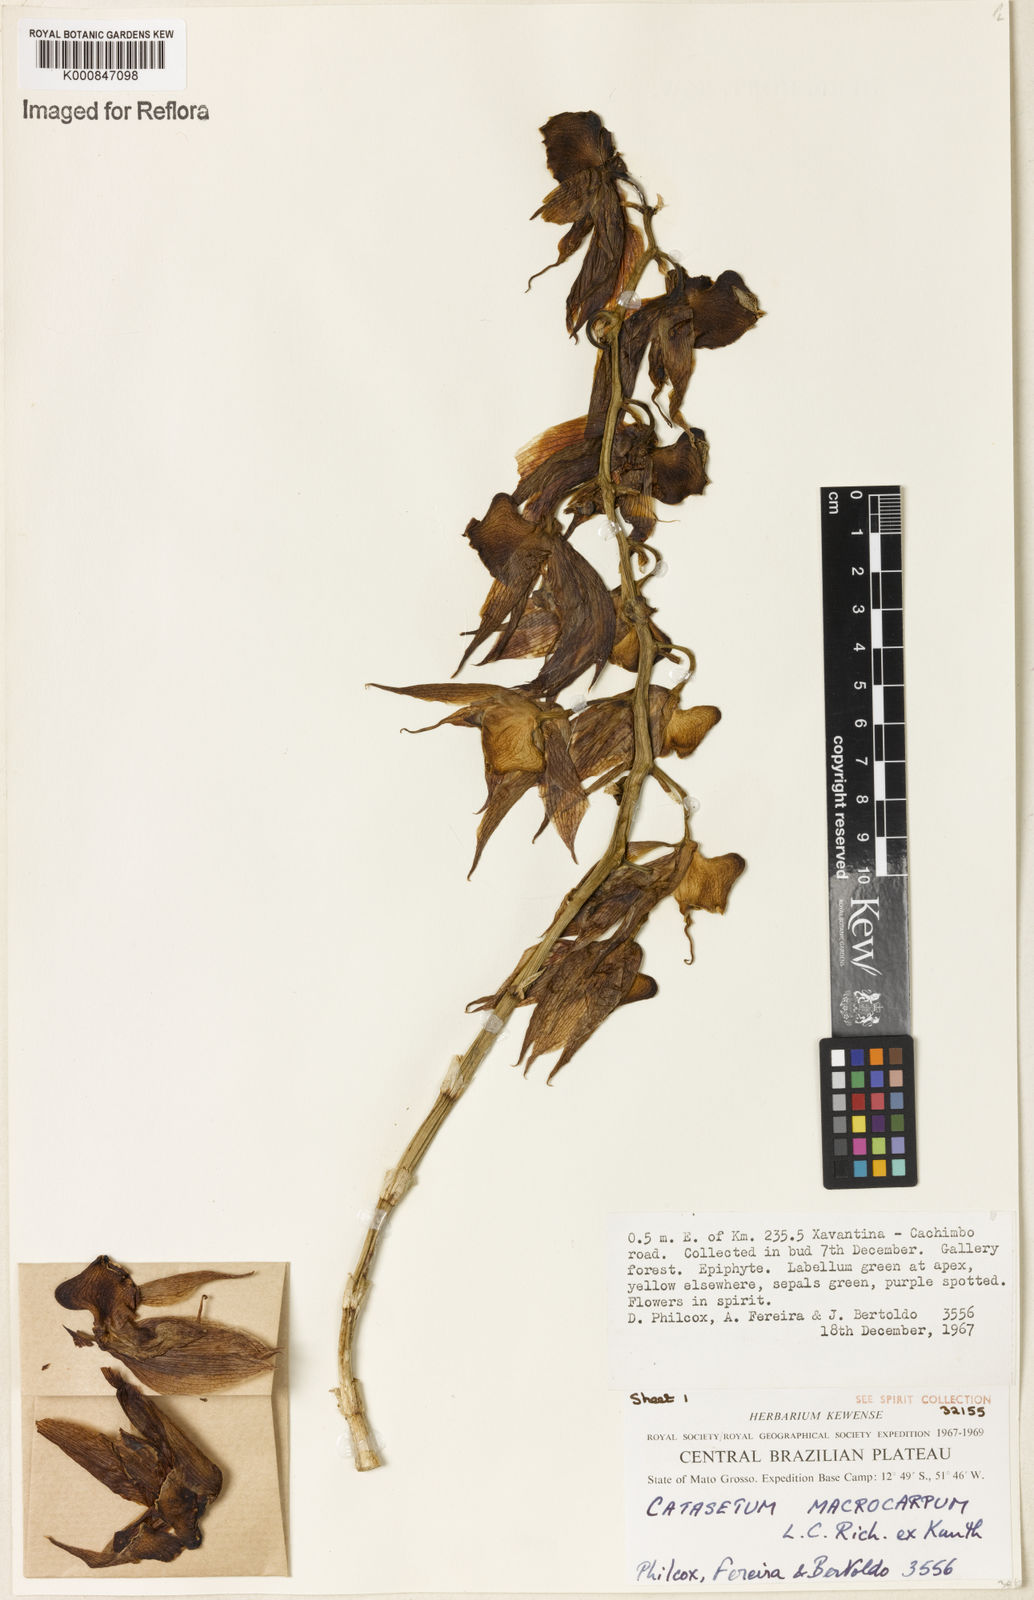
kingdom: Plantae
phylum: Tracheophyta
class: Liliopsida
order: Asparagales
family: Orchidaceae
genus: Catasetum
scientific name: Catasetum macrocarpum
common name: Jumping orchid
